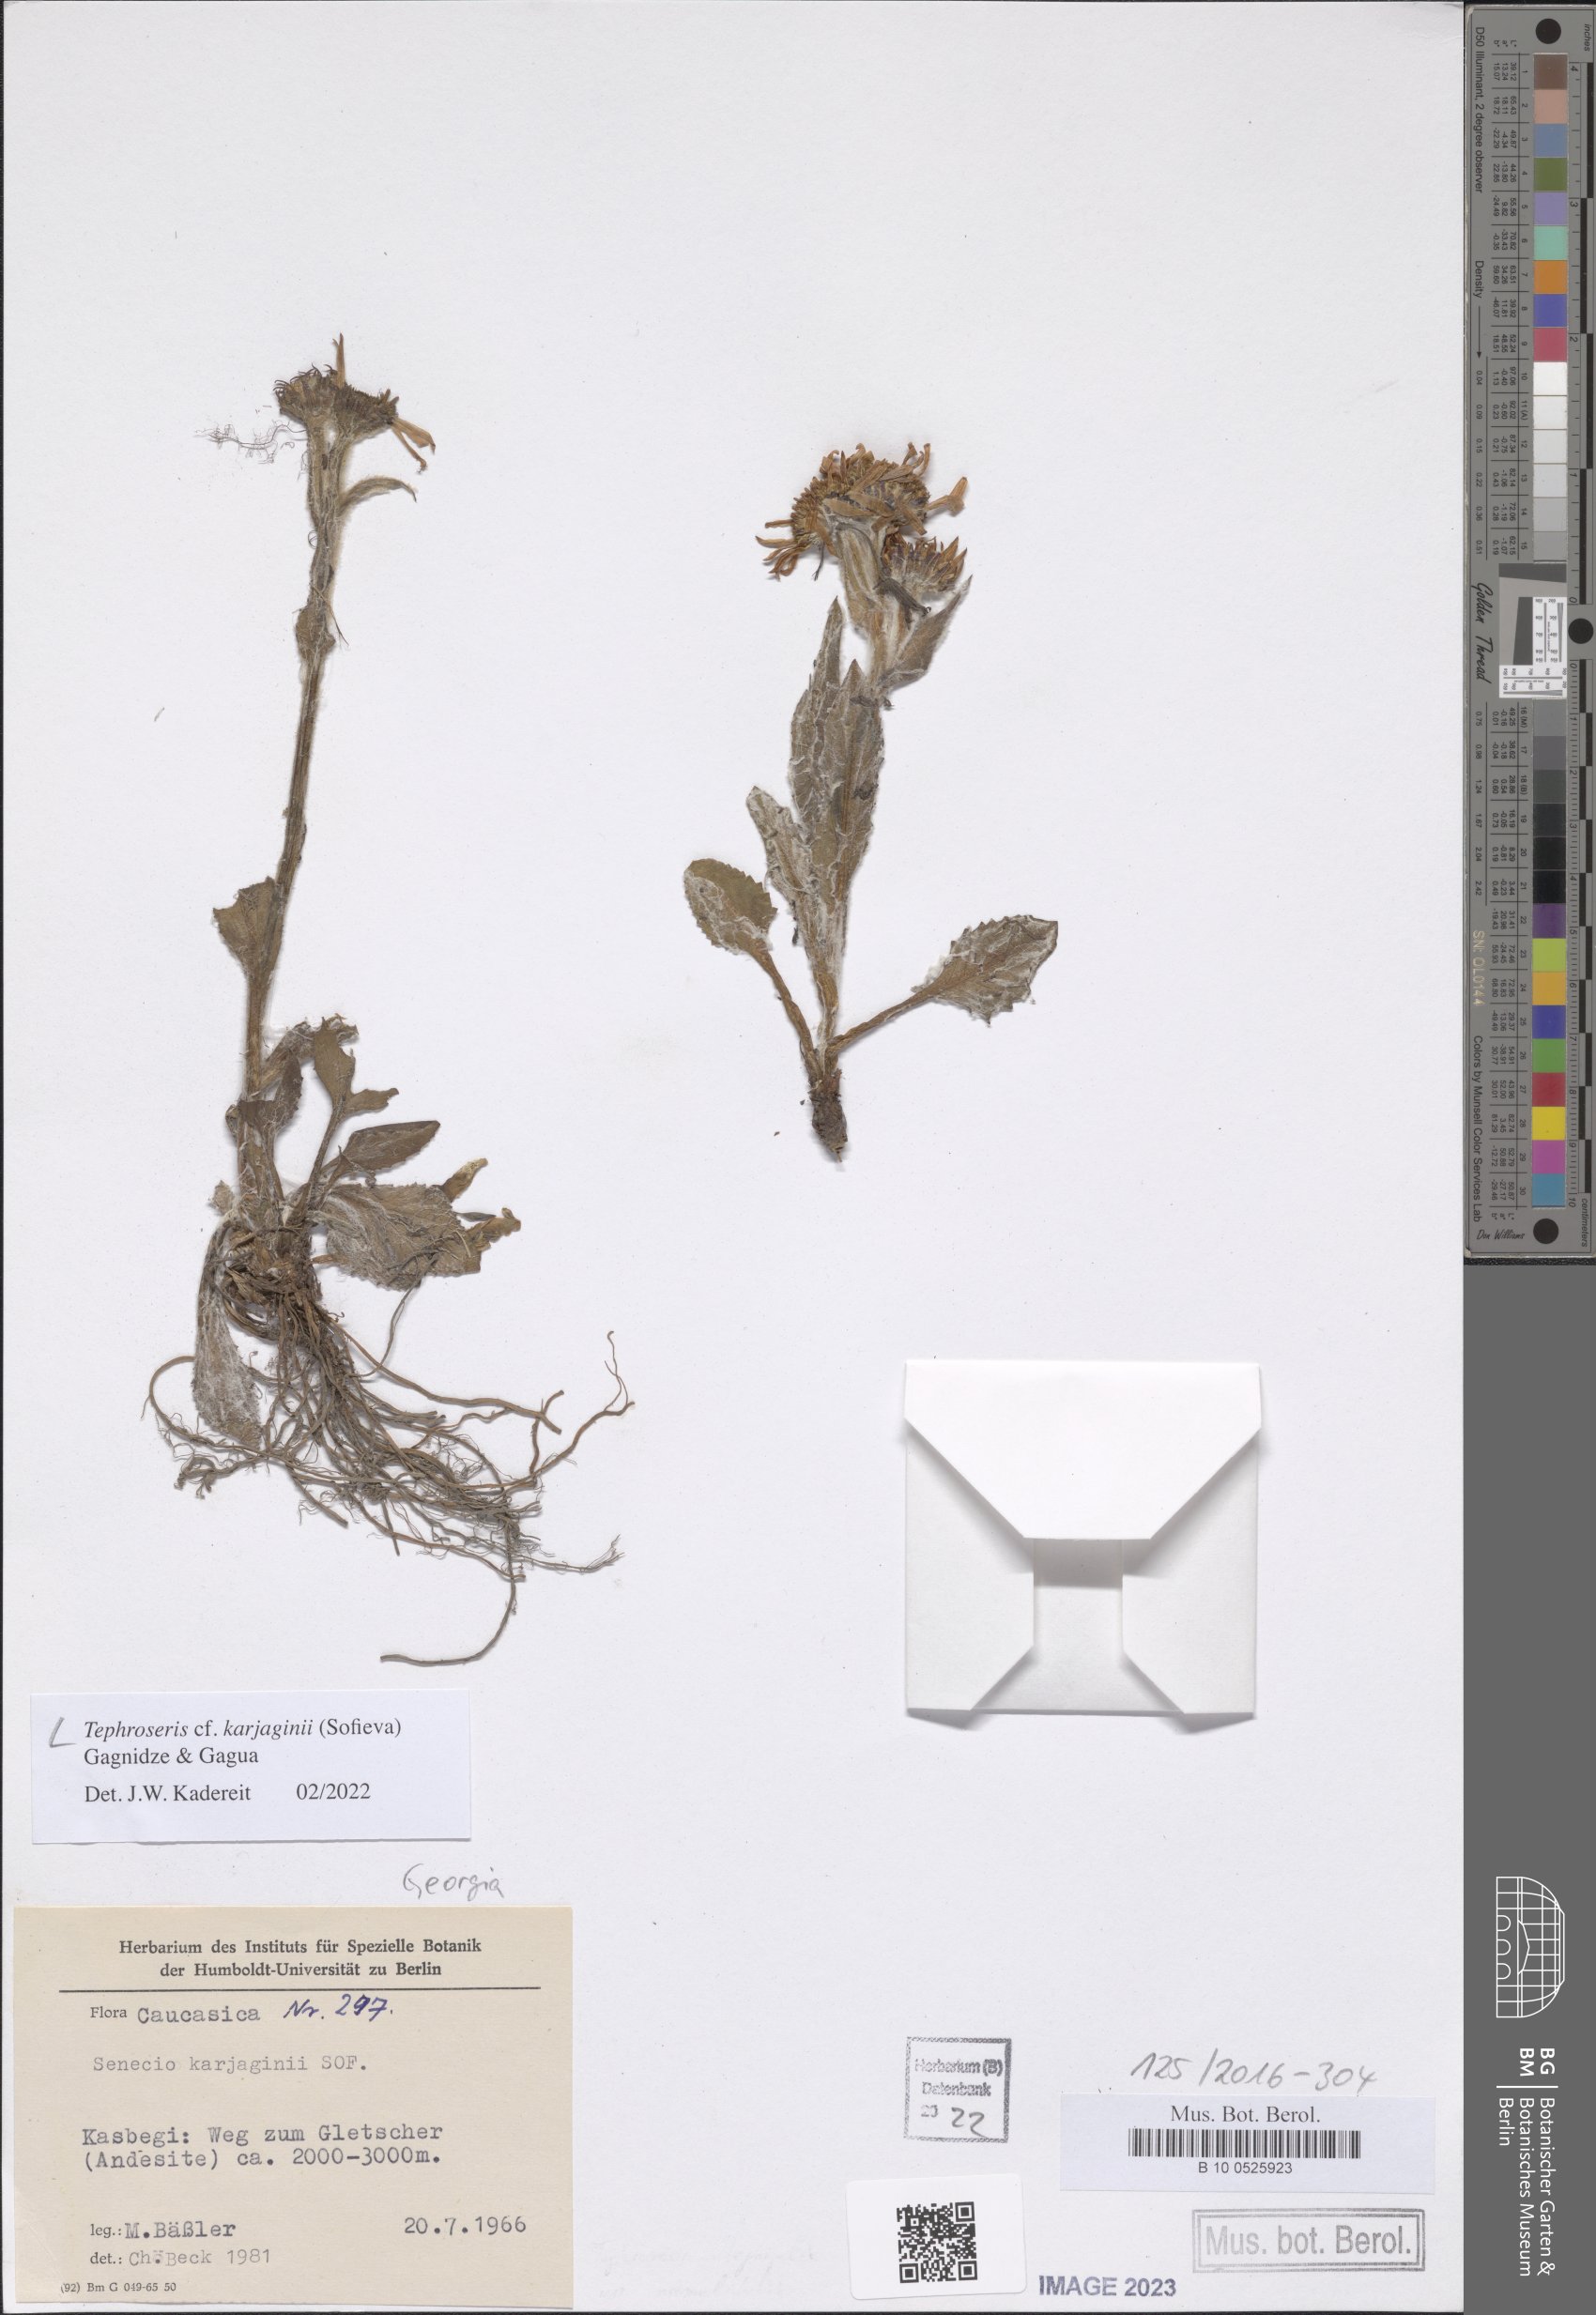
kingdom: Plantae
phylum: Tracheophyta
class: Magnoliopsida
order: Asterales
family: Asteraceae
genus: Tephroseris
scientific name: Tephroseris integrifolia
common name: Field fleawort
